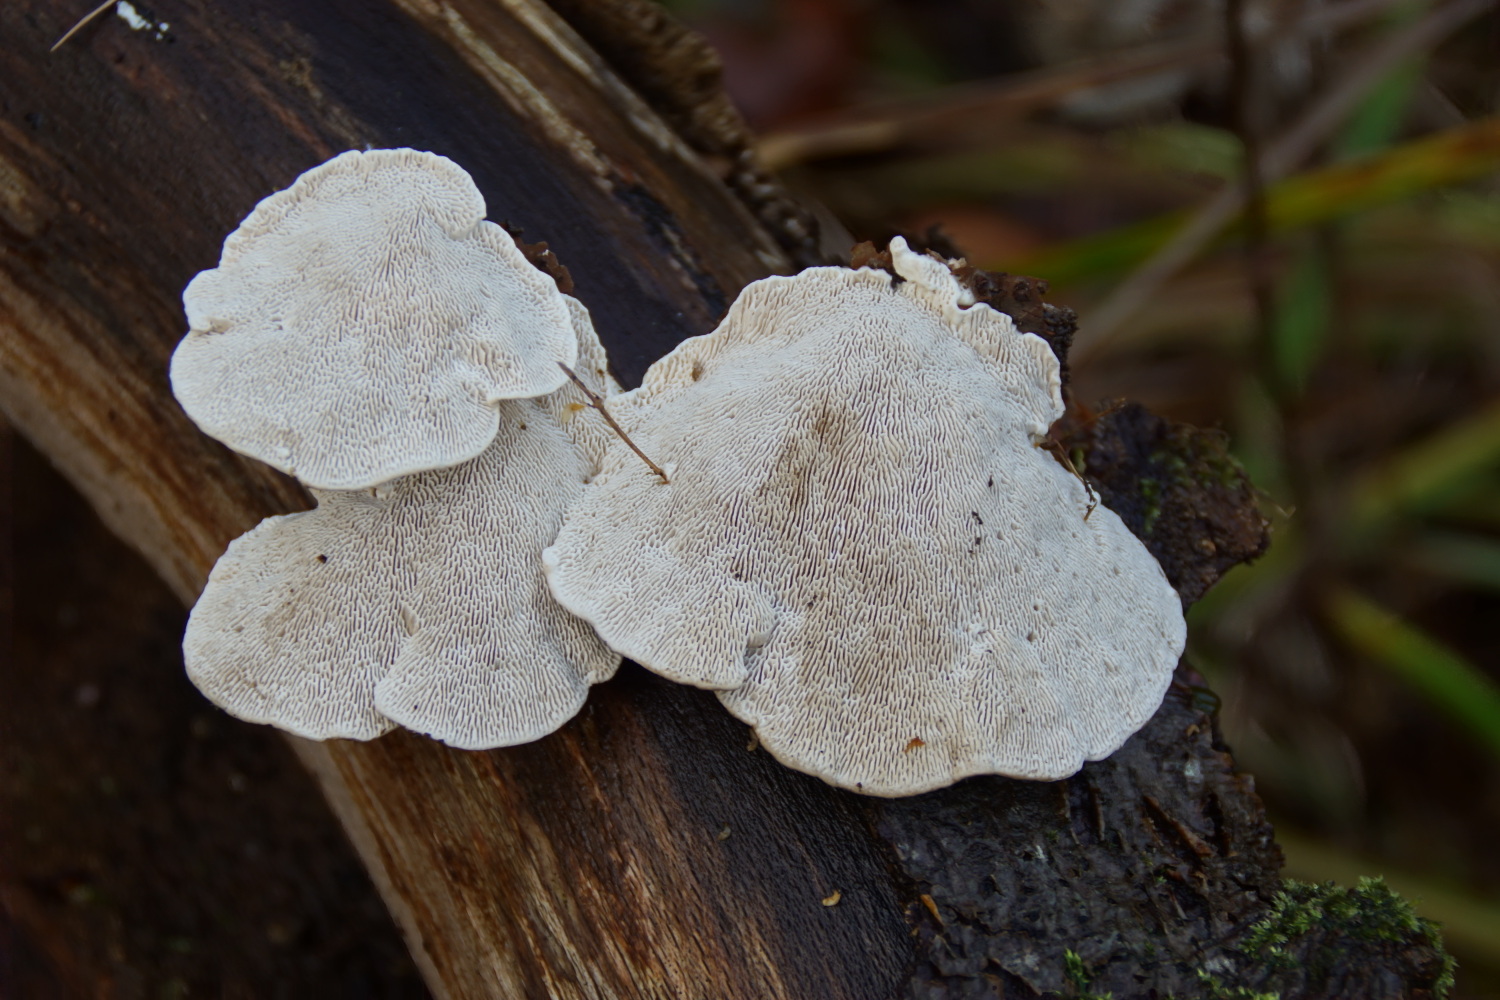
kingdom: Fungi
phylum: Basidiomycota
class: Agaricomycetes
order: Polyporales
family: Polyporaceae
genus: Trametes
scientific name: Trametes gibbosa
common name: puklet læderporesvamp
